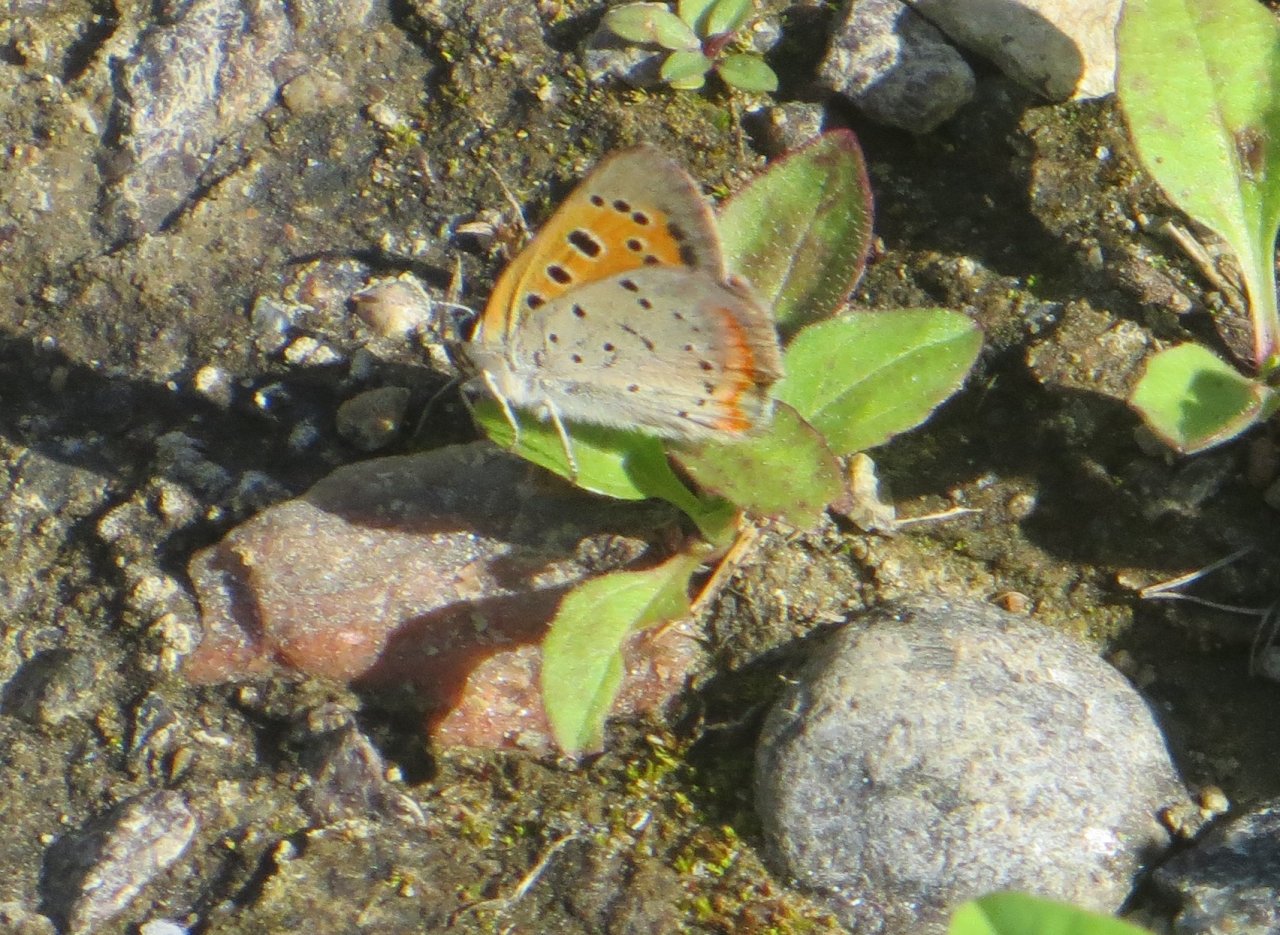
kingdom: Animalia
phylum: Arthropoda
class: Insecta
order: Lepidoptera
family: Lycaenidae
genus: Lycaena
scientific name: Lycaena phlaeas
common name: American Copper
